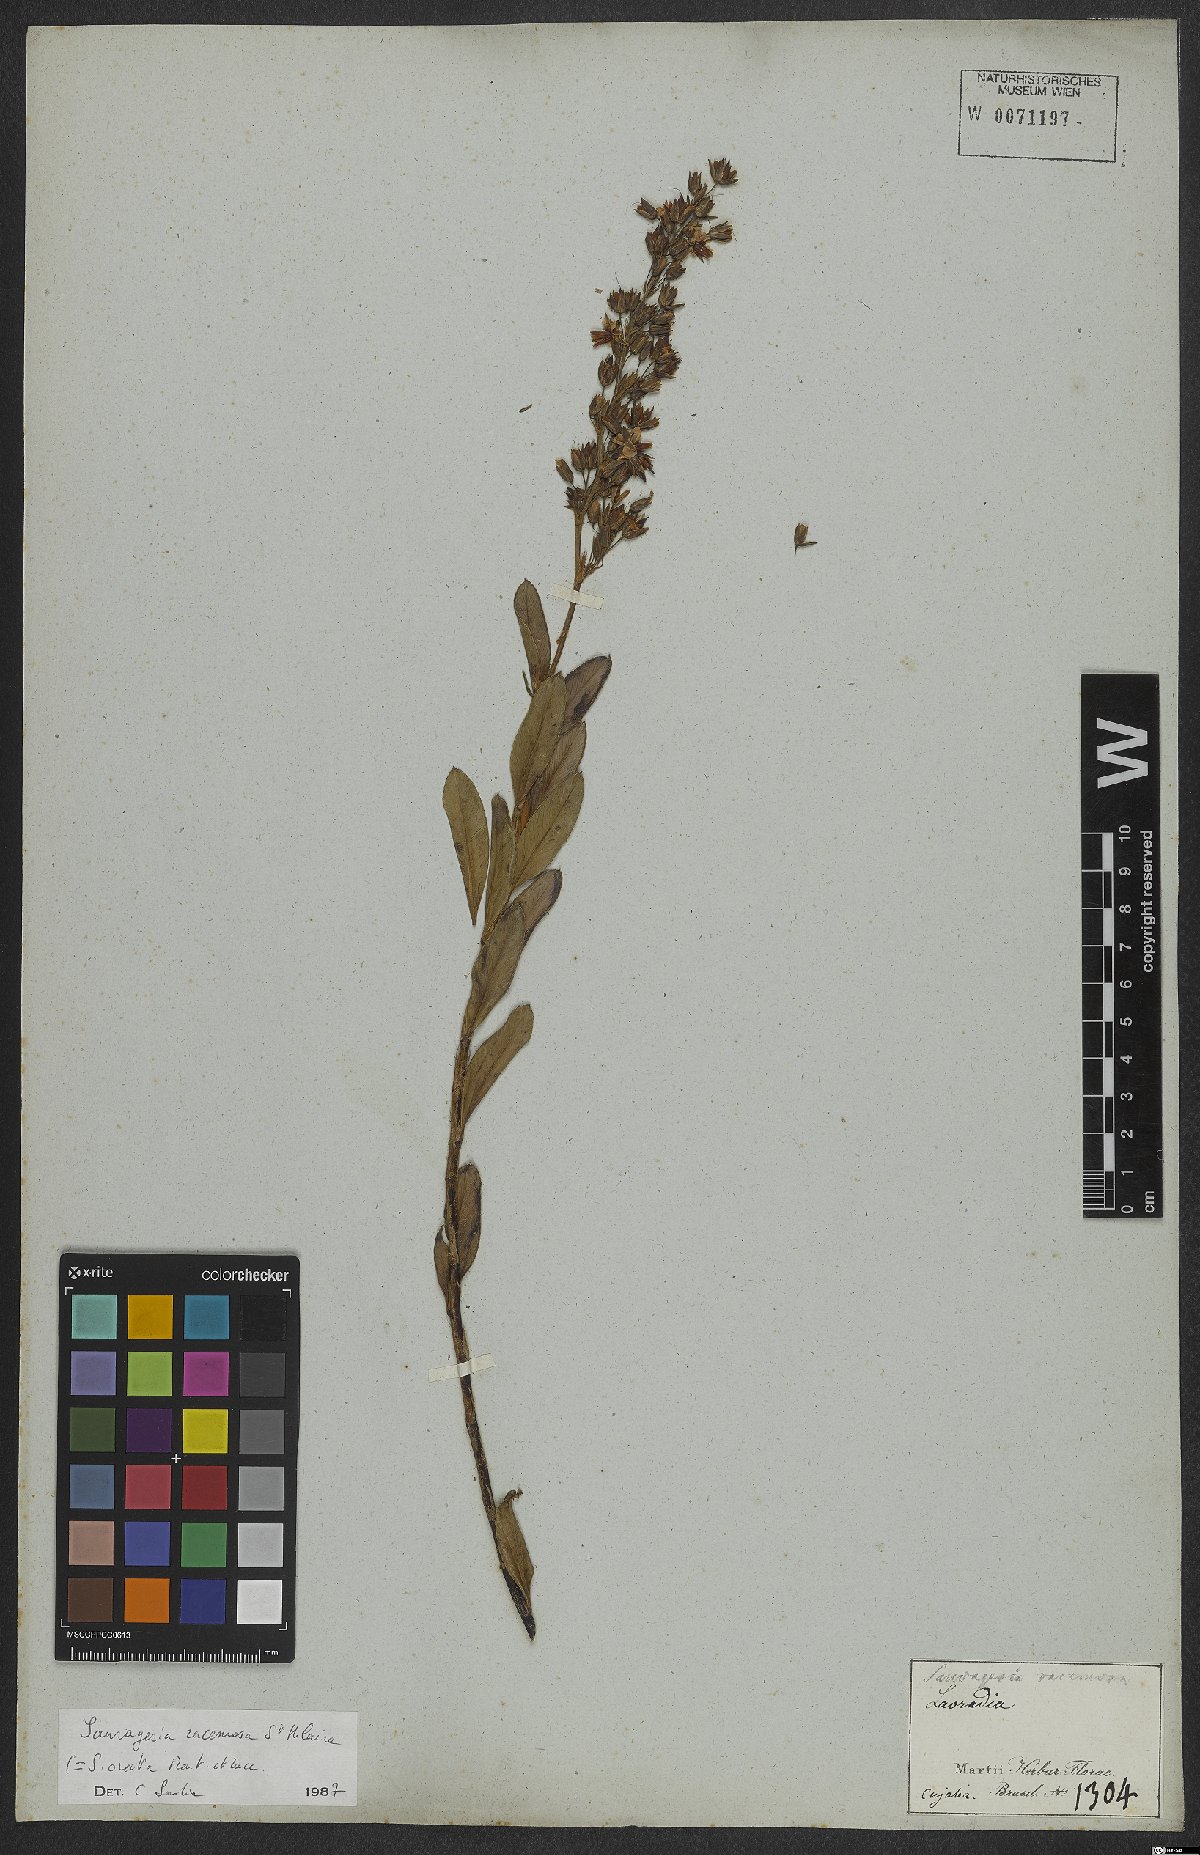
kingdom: Plantae
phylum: Tracheophyta
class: Magnoliopsida
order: Malpighiales
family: Ochnaceae
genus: Sauvagesia
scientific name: Sauvagesia racemosa
